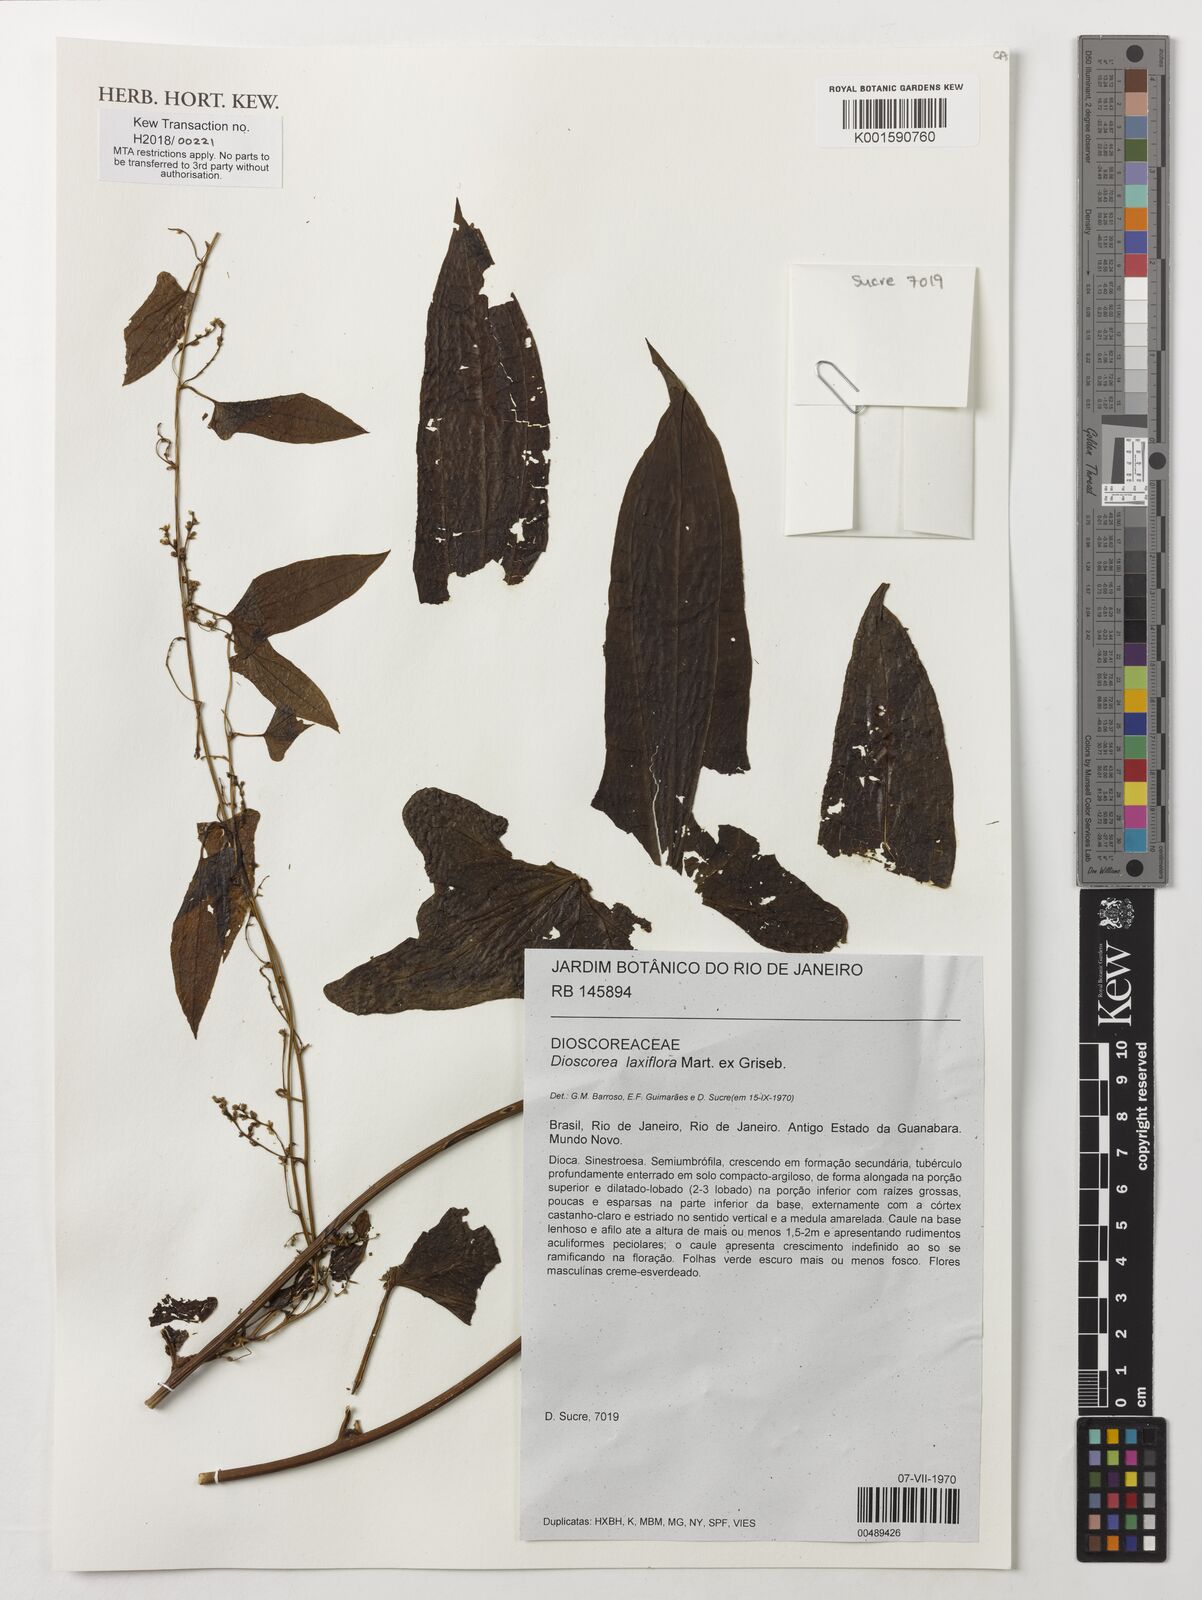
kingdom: Plantae
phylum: Tracheophyta
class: Liliopsida
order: Dioscoreales
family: Dioscoreaceae
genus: Dioscorea
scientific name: Dioscorea laxiflora
